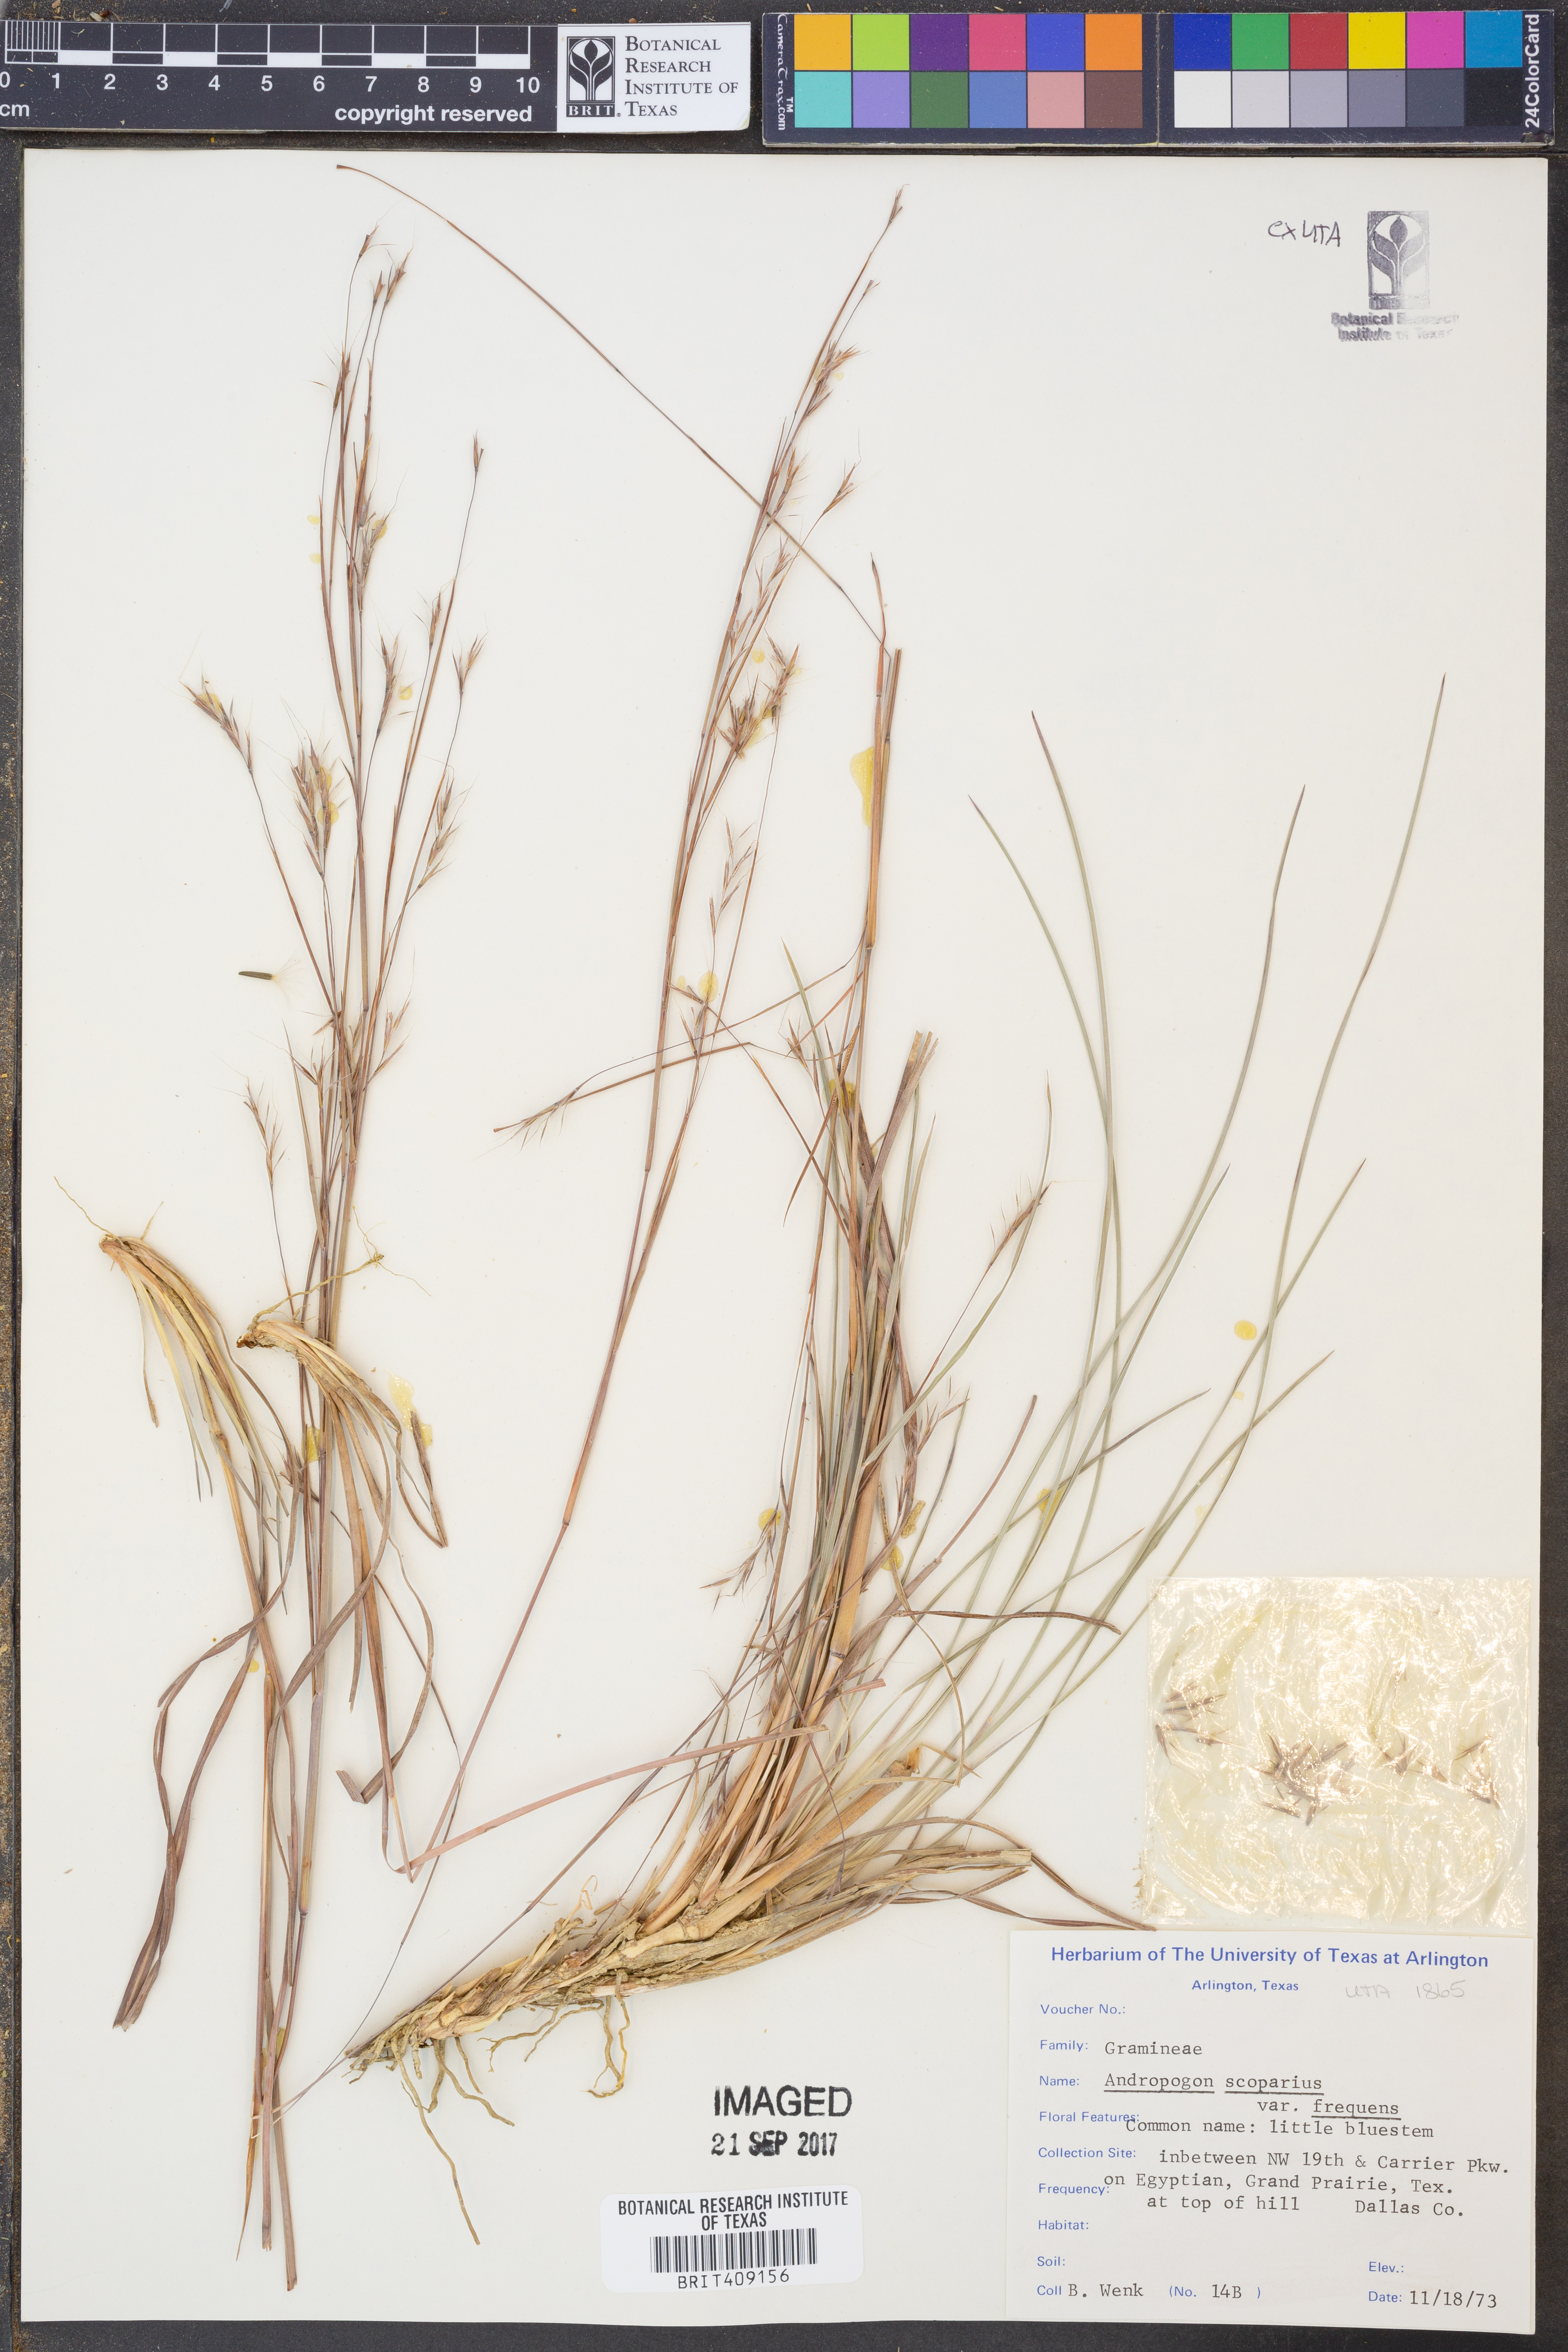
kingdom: Plantae
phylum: Tracheophyta
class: Liliopsida
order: Poales
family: Poaceae
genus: Schizachyrium
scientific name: Schizachyrium scoparium
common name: Little bluestem
